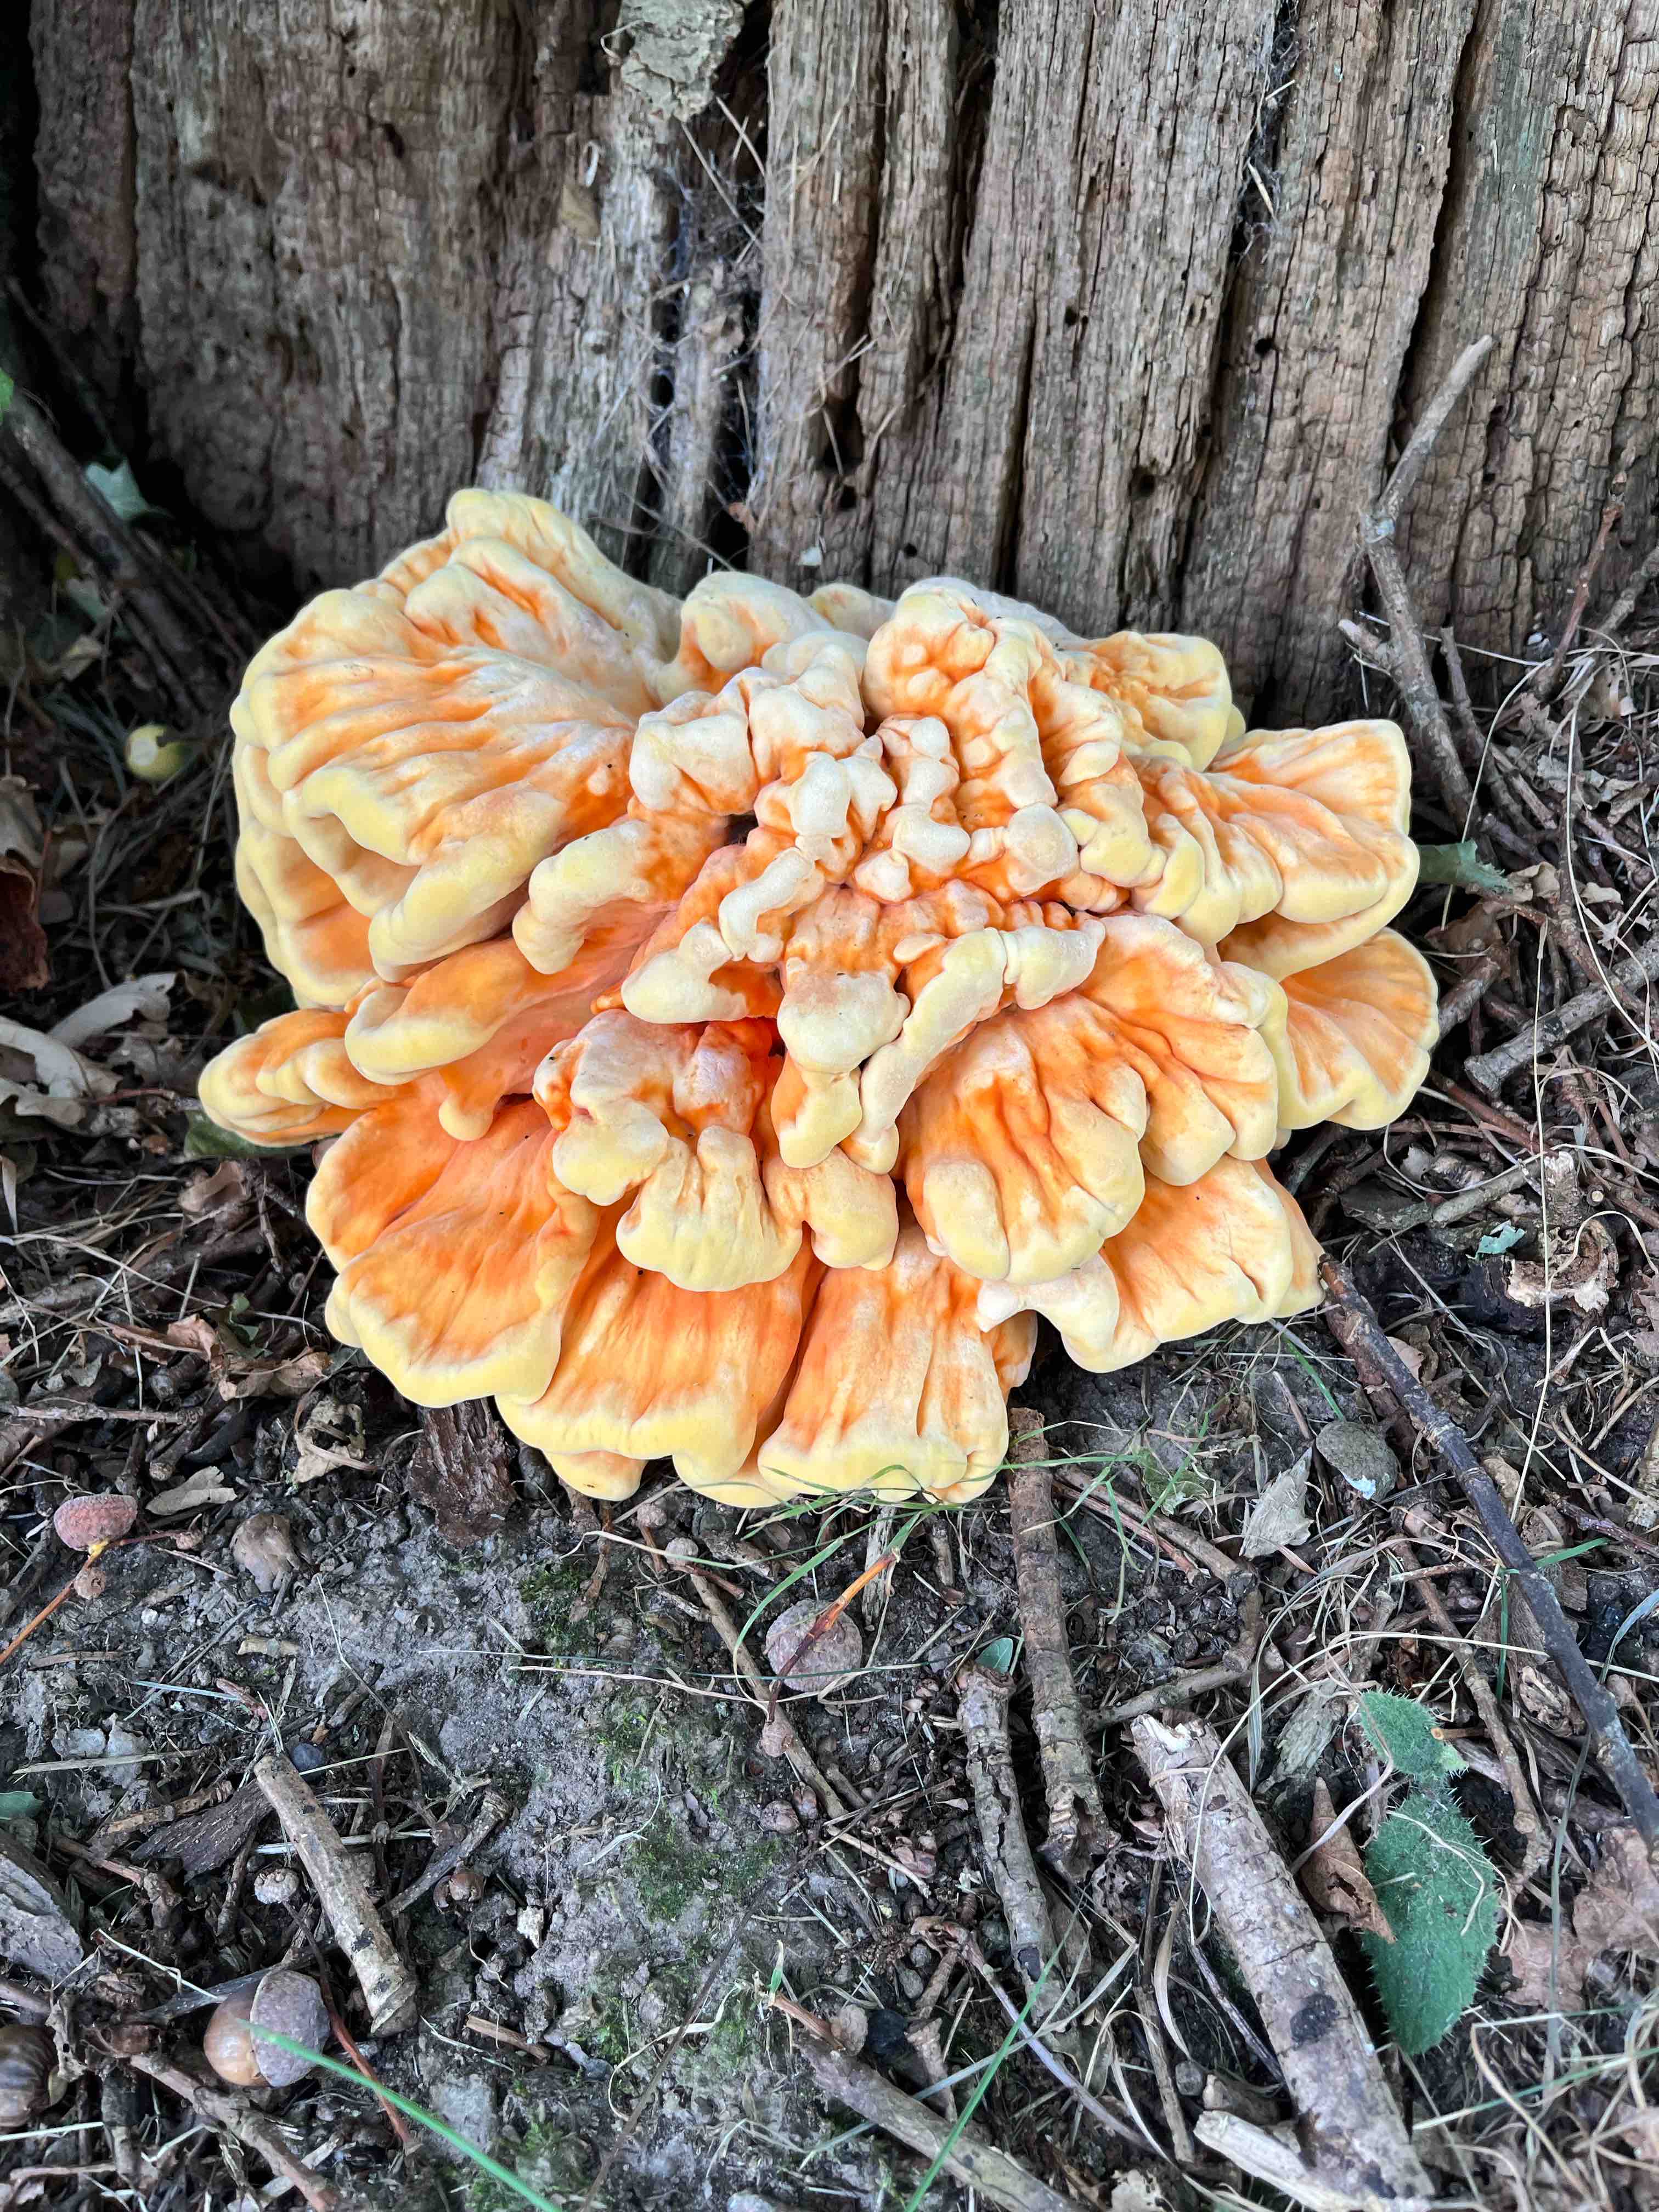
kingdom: Fungi
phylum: Basidiomycota
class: Agaricomycetes
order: Polyporales
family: Laetiporaceae
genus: Laetiporus
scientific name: Laetiporus sulphureus
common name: svovlporesvamp
